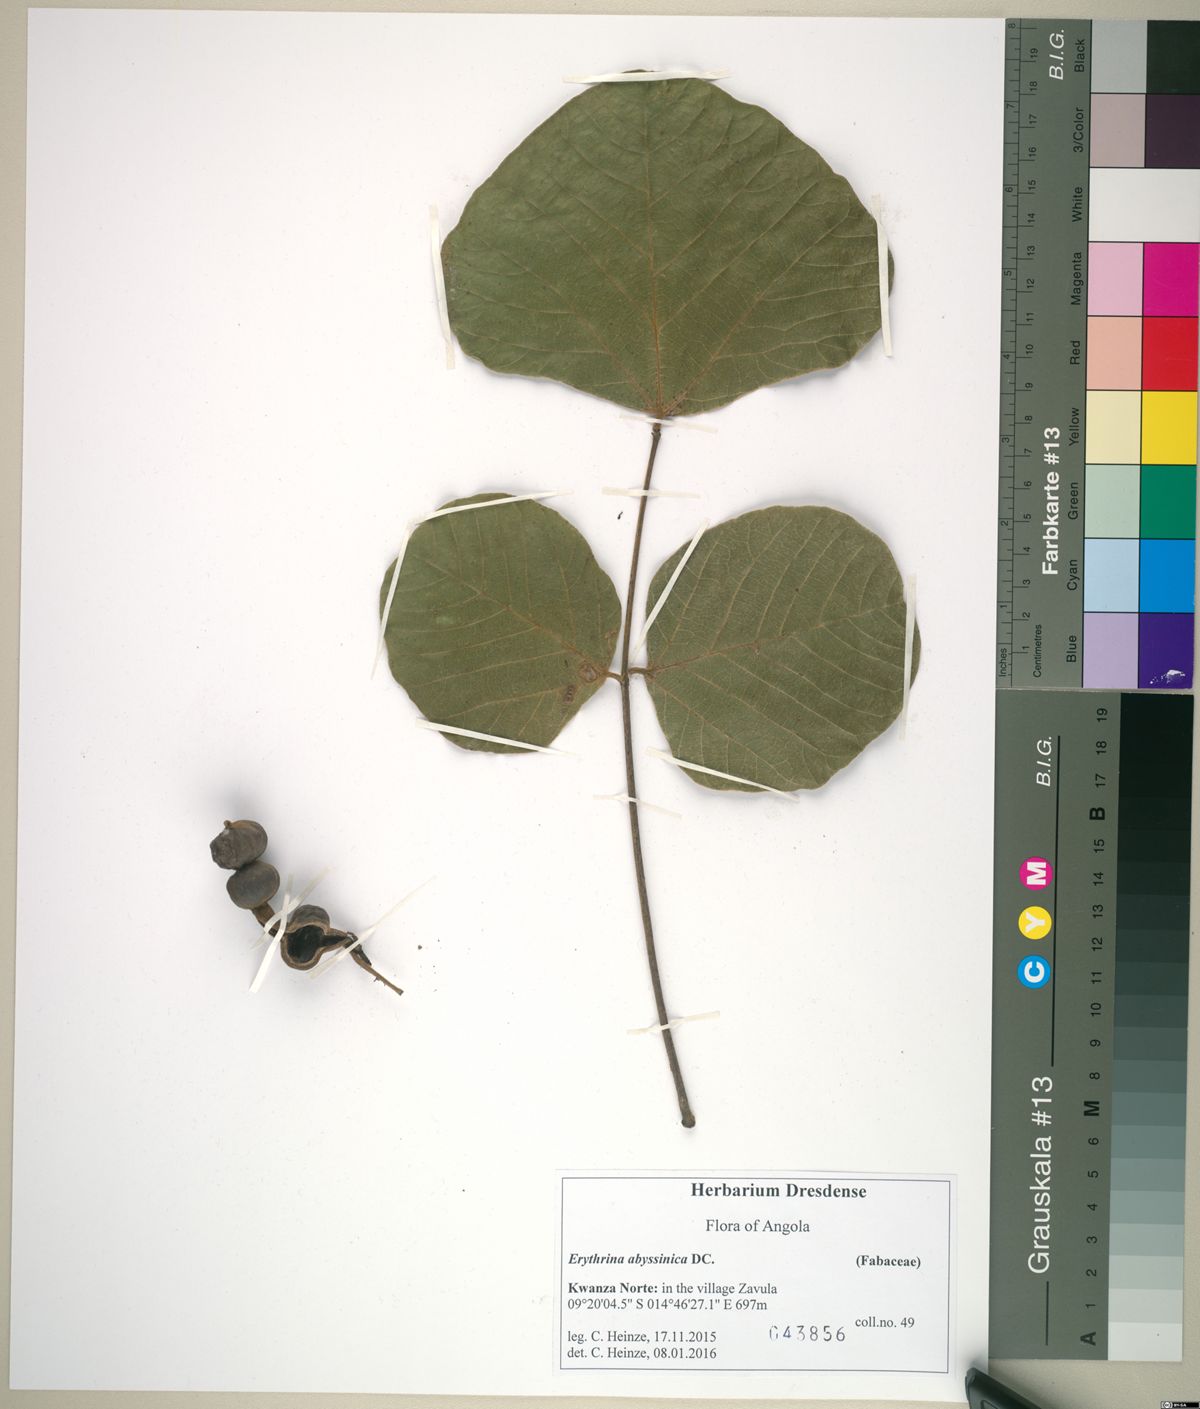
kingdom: Plantae
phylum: Tracheophyta
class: Magnoliopsida
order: Fabales
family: Fabaceae
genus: Erythrina
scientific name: Erythrina abyssinica
